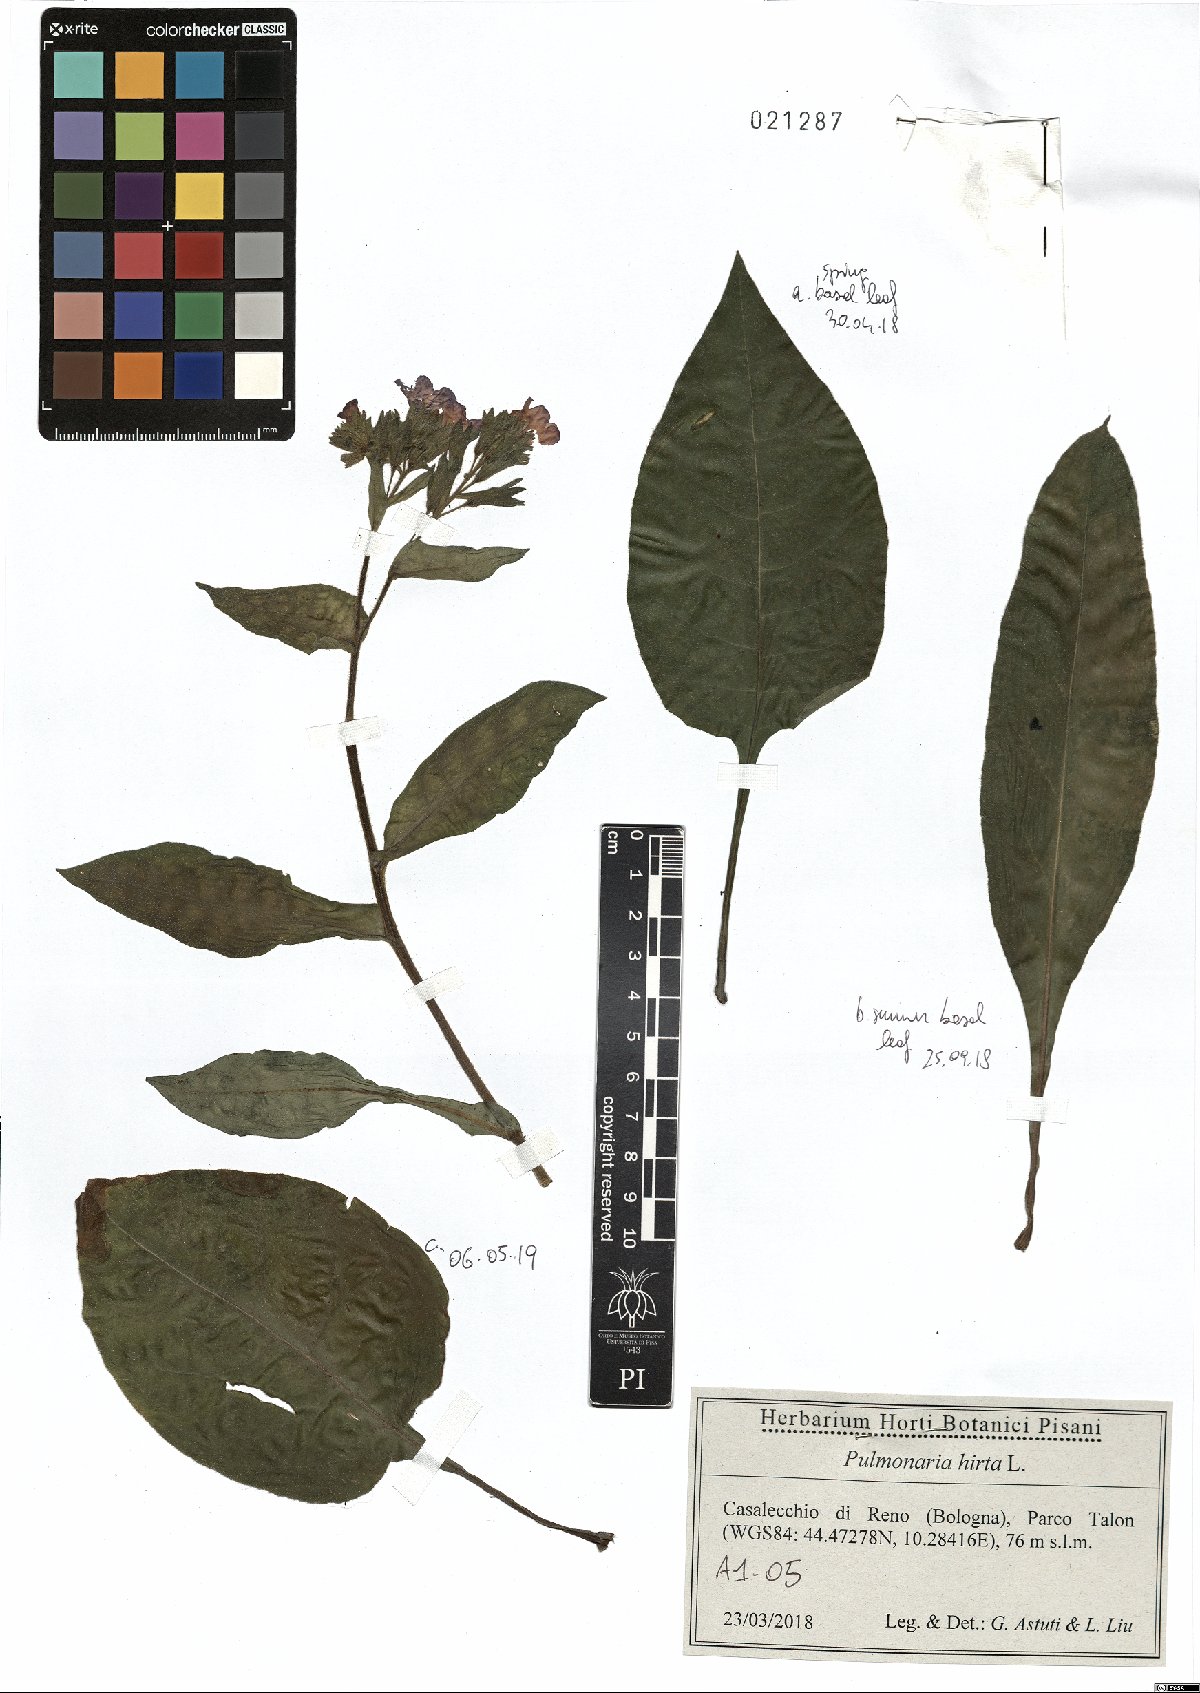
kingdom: Plantae
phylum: Tracheophyta
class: Magnoliopsida
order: Boraginales
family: Boraginaceae
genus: Pulmonaria
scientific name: Pulmonaria hirta
